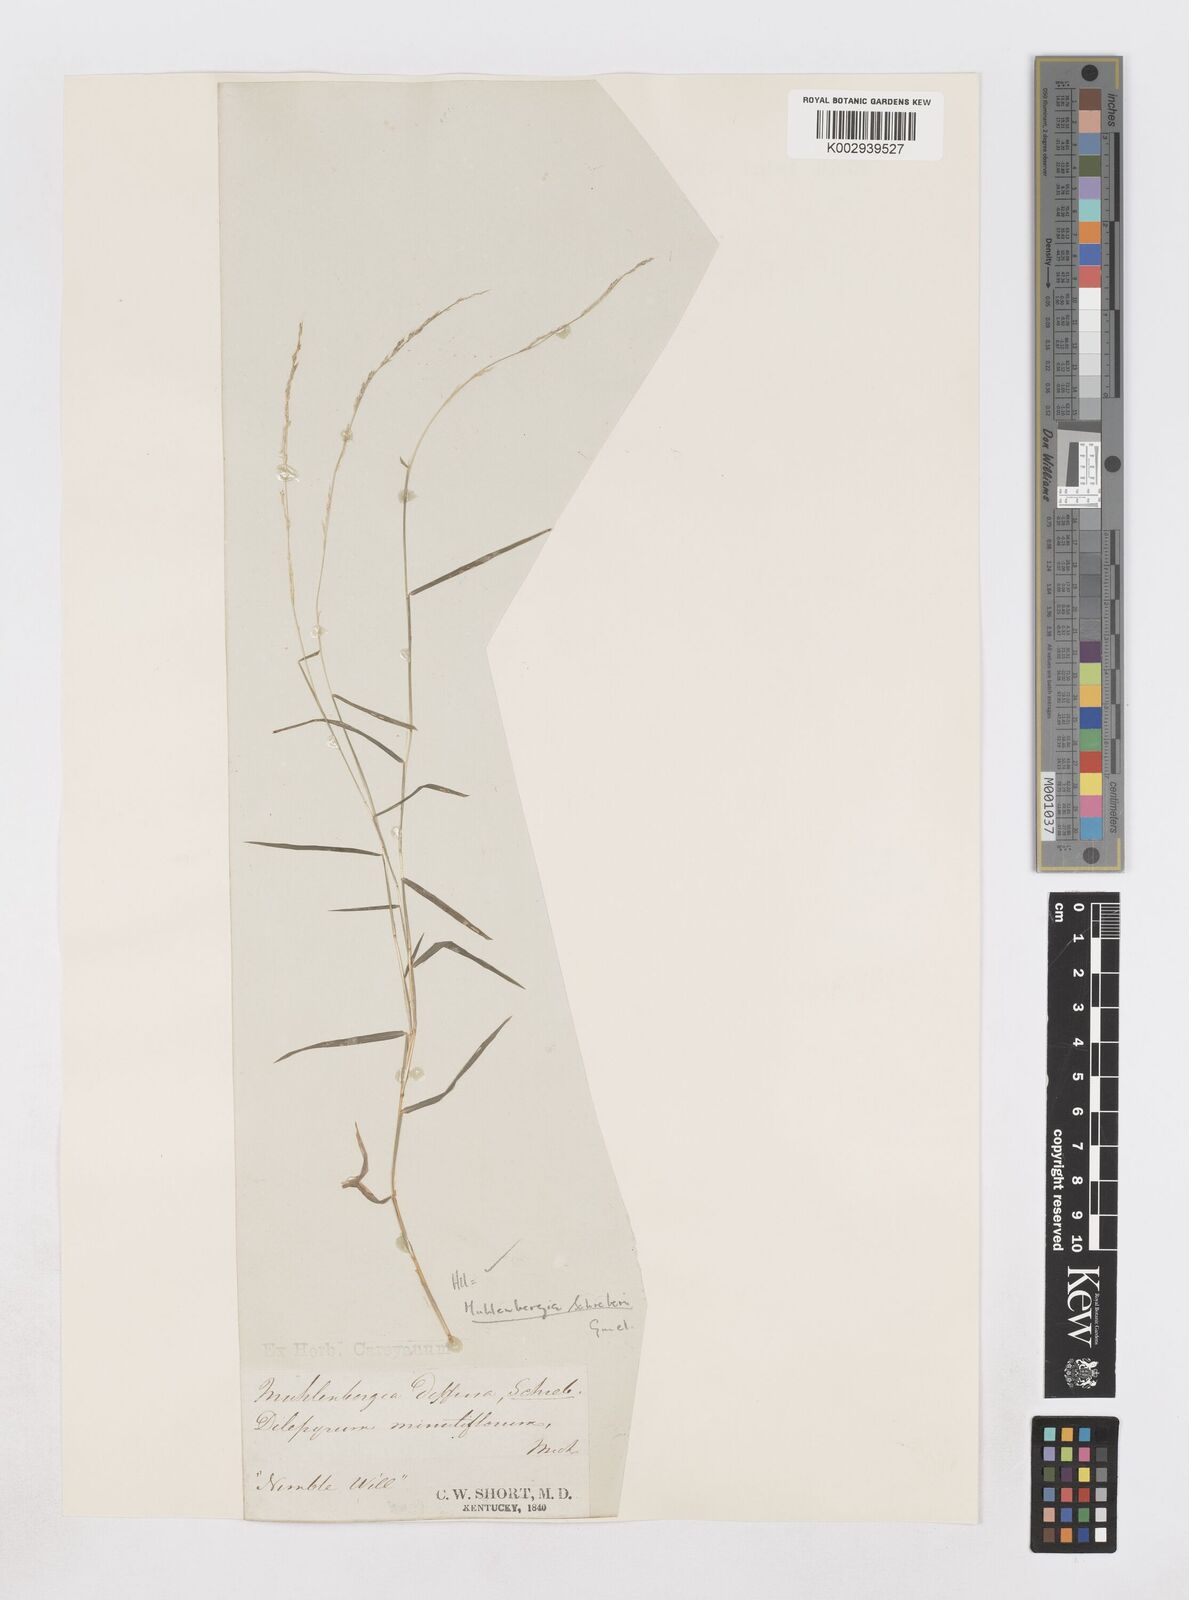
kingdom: Plantae
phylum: Tracheophyta
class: Liliopsida
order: Poales
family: Poaceae
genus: Muhlenbergia
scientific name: Muhlenbergia schreberi
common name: Nimblewill
